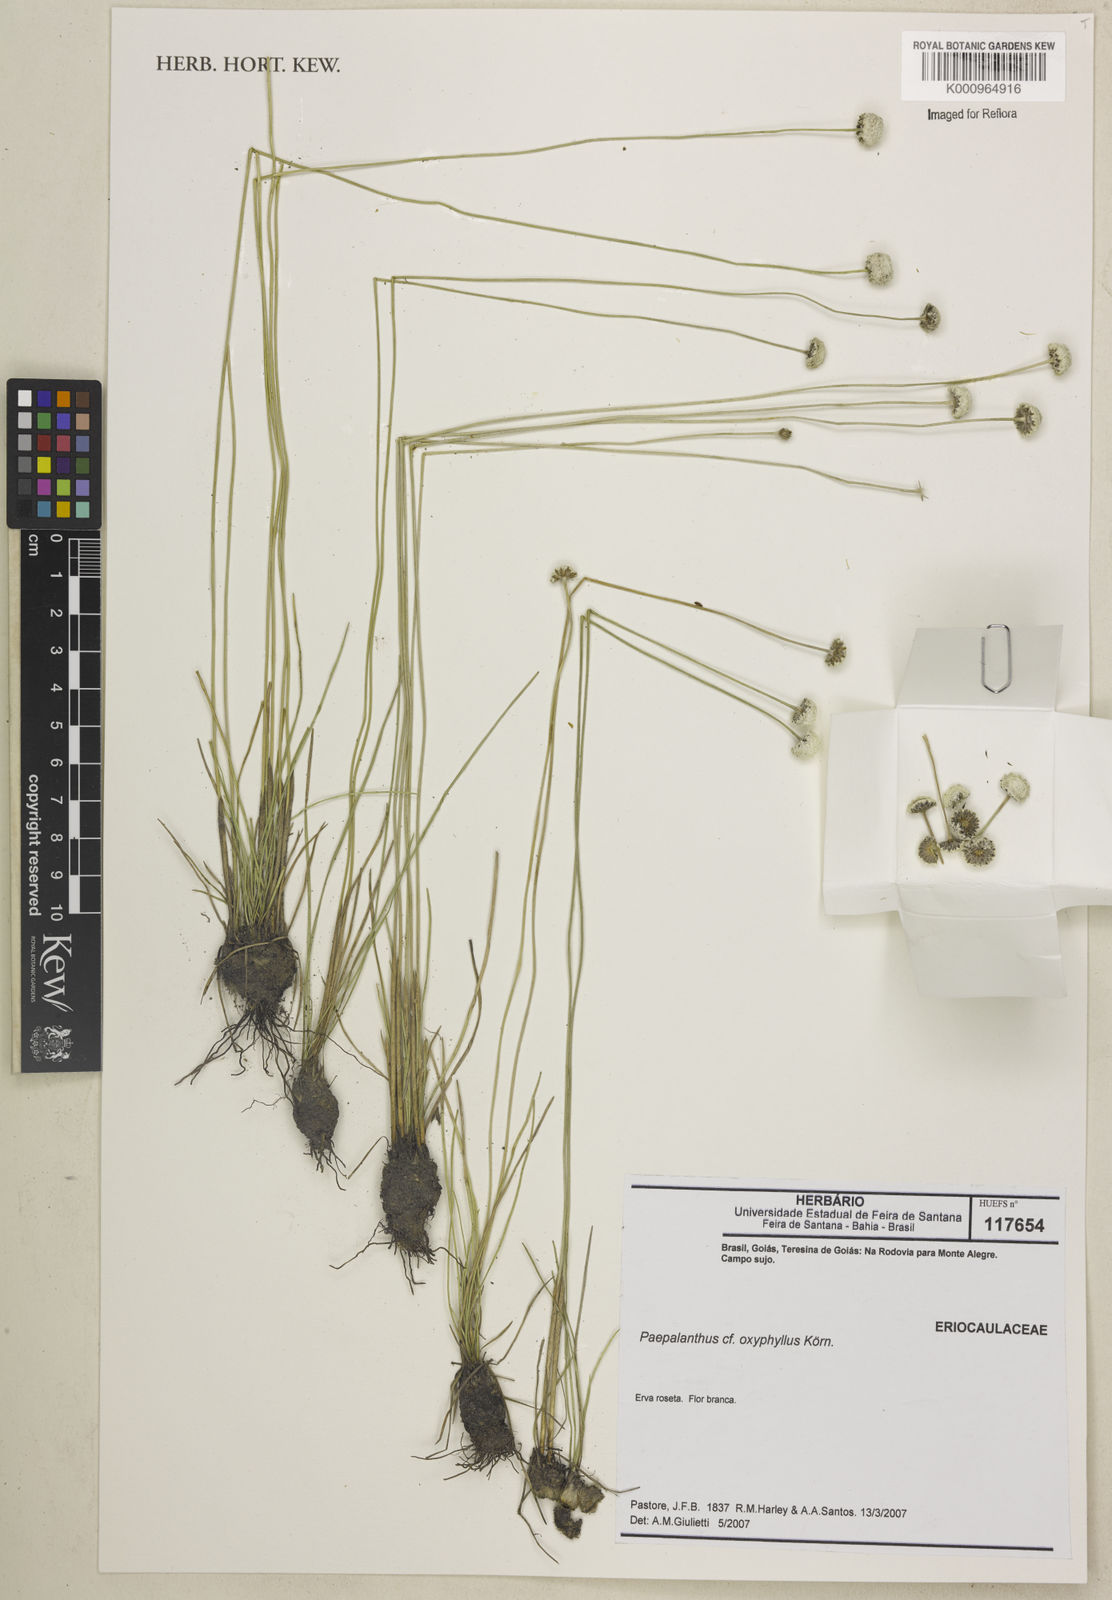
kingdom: Plantae
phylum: Tracheophyta
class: Liliopsida
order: Poales
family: Eriocaulaceae
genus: Paepalanthus
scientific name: Paepalanthus
